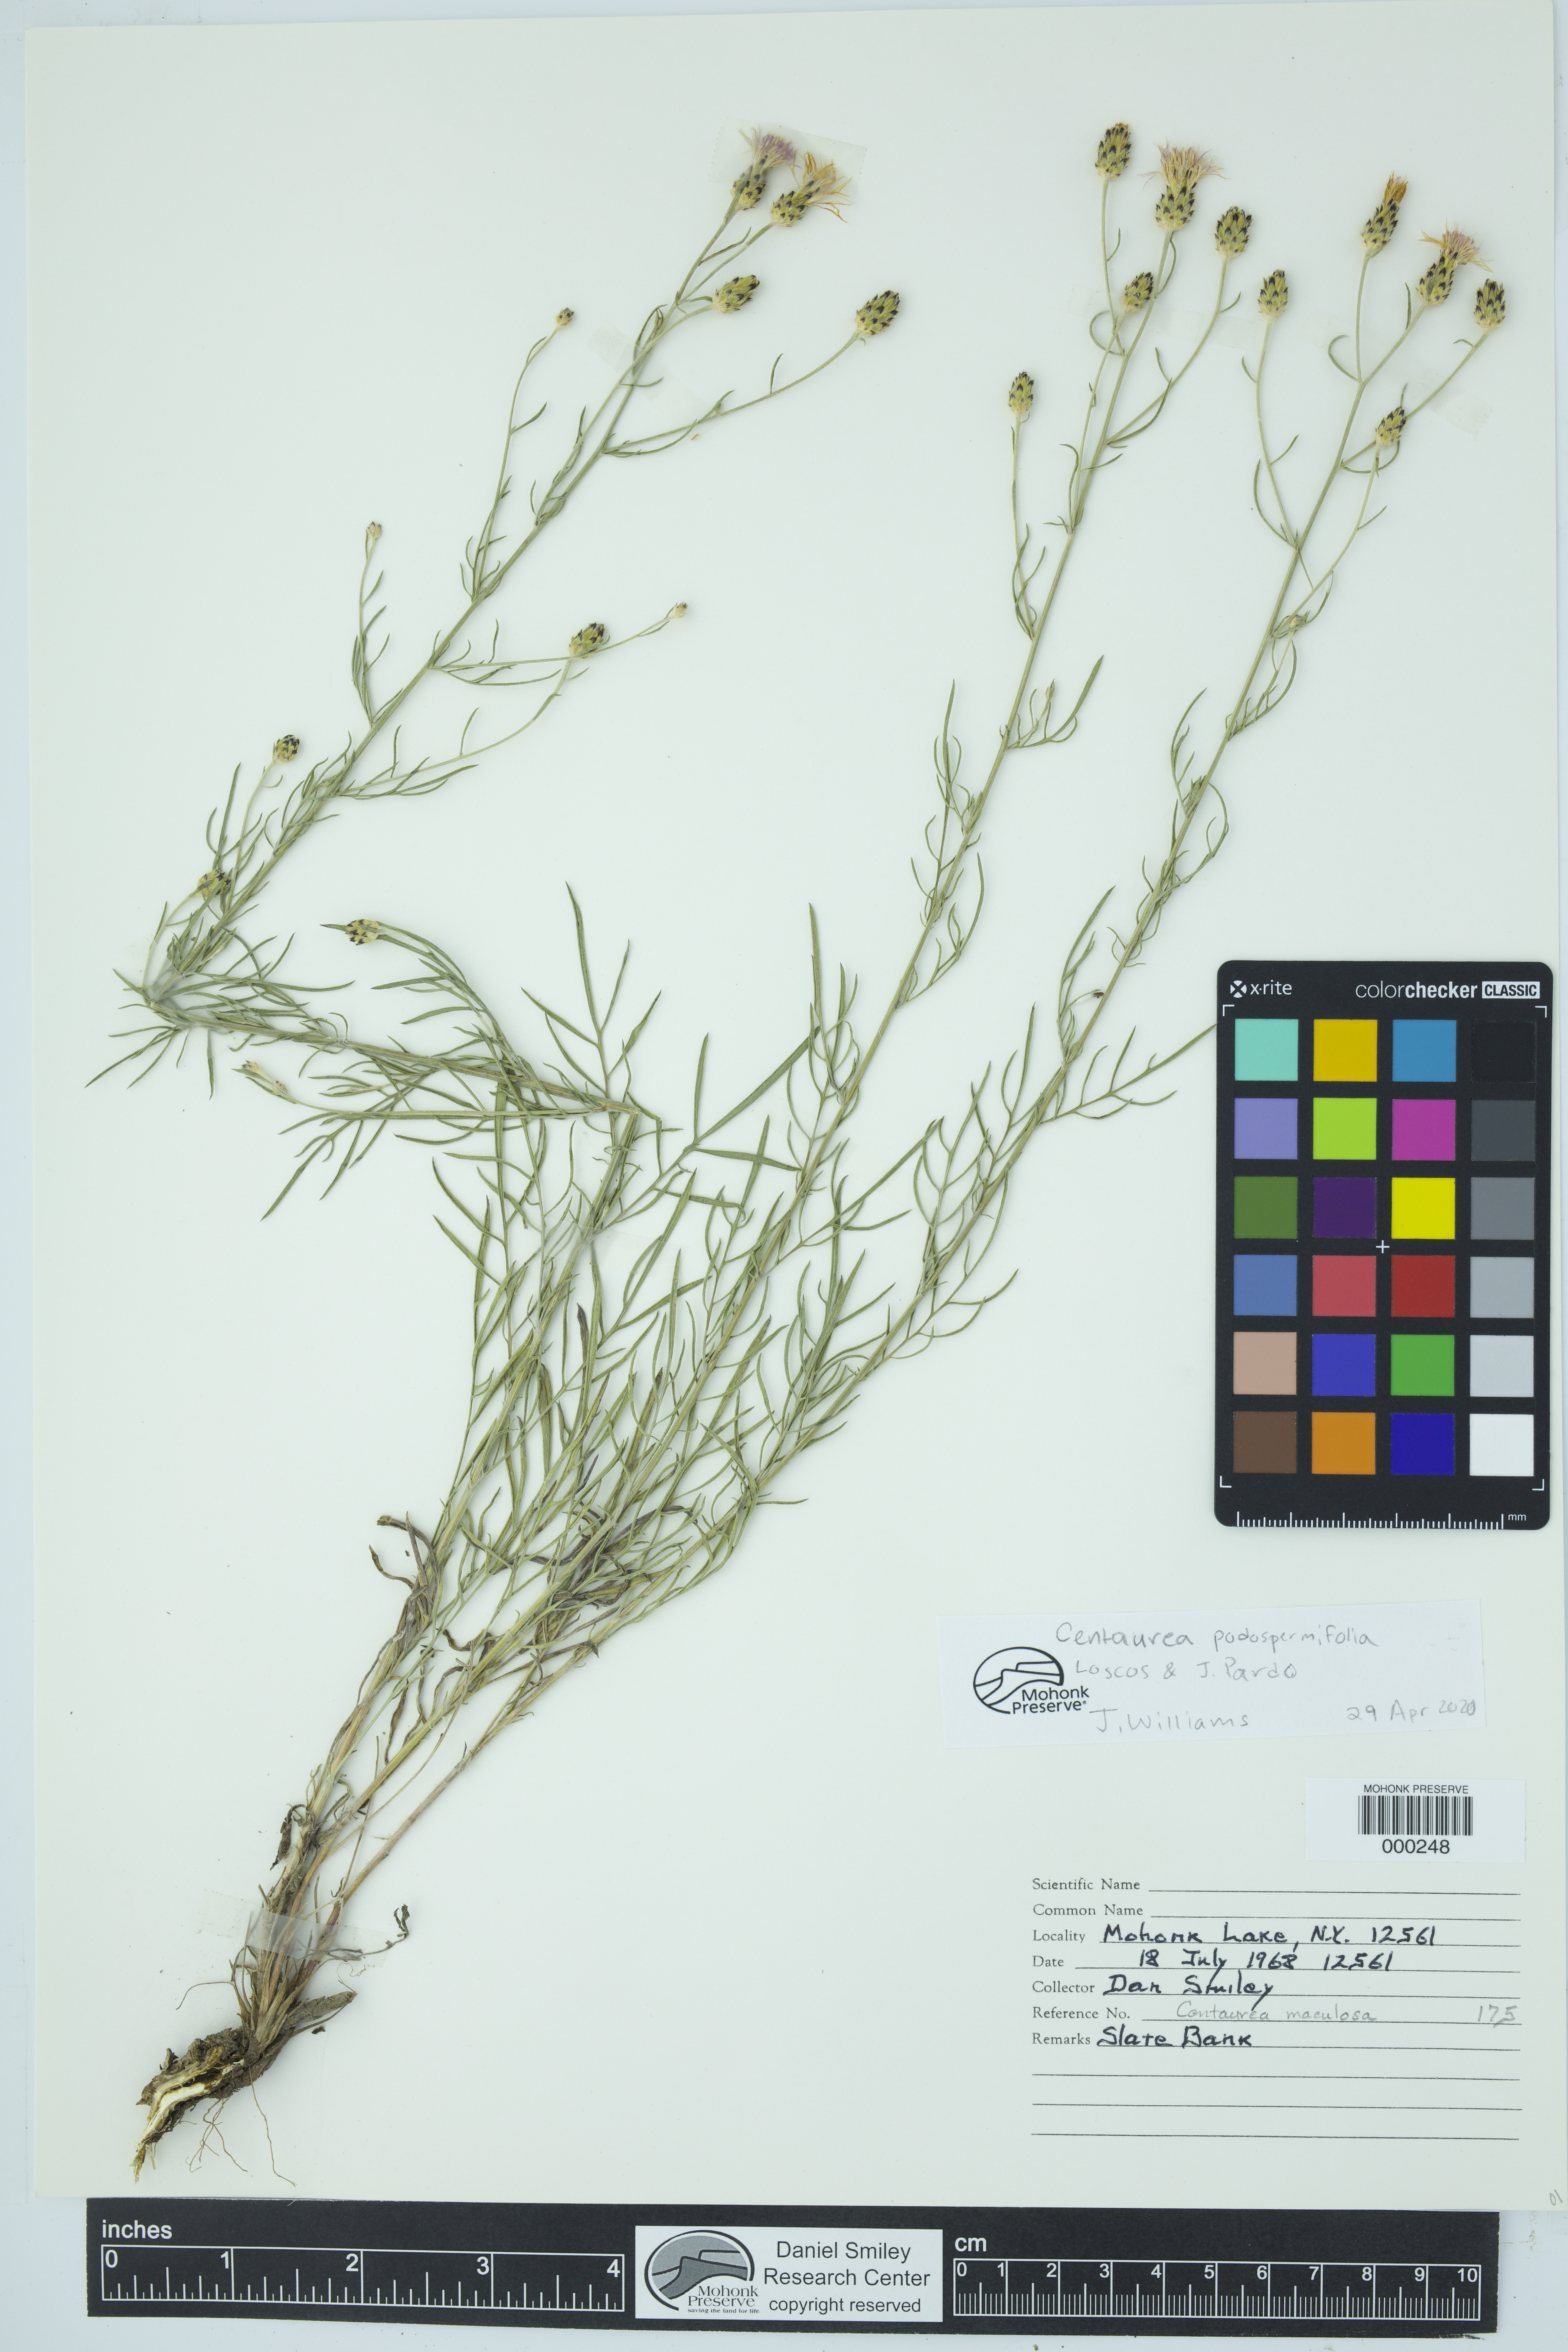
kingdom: Plantae
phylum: Tracheophyta
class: Magnoliopsida
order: Asterales
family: Asteraceae
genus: Centaurea
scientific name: Centaurea
